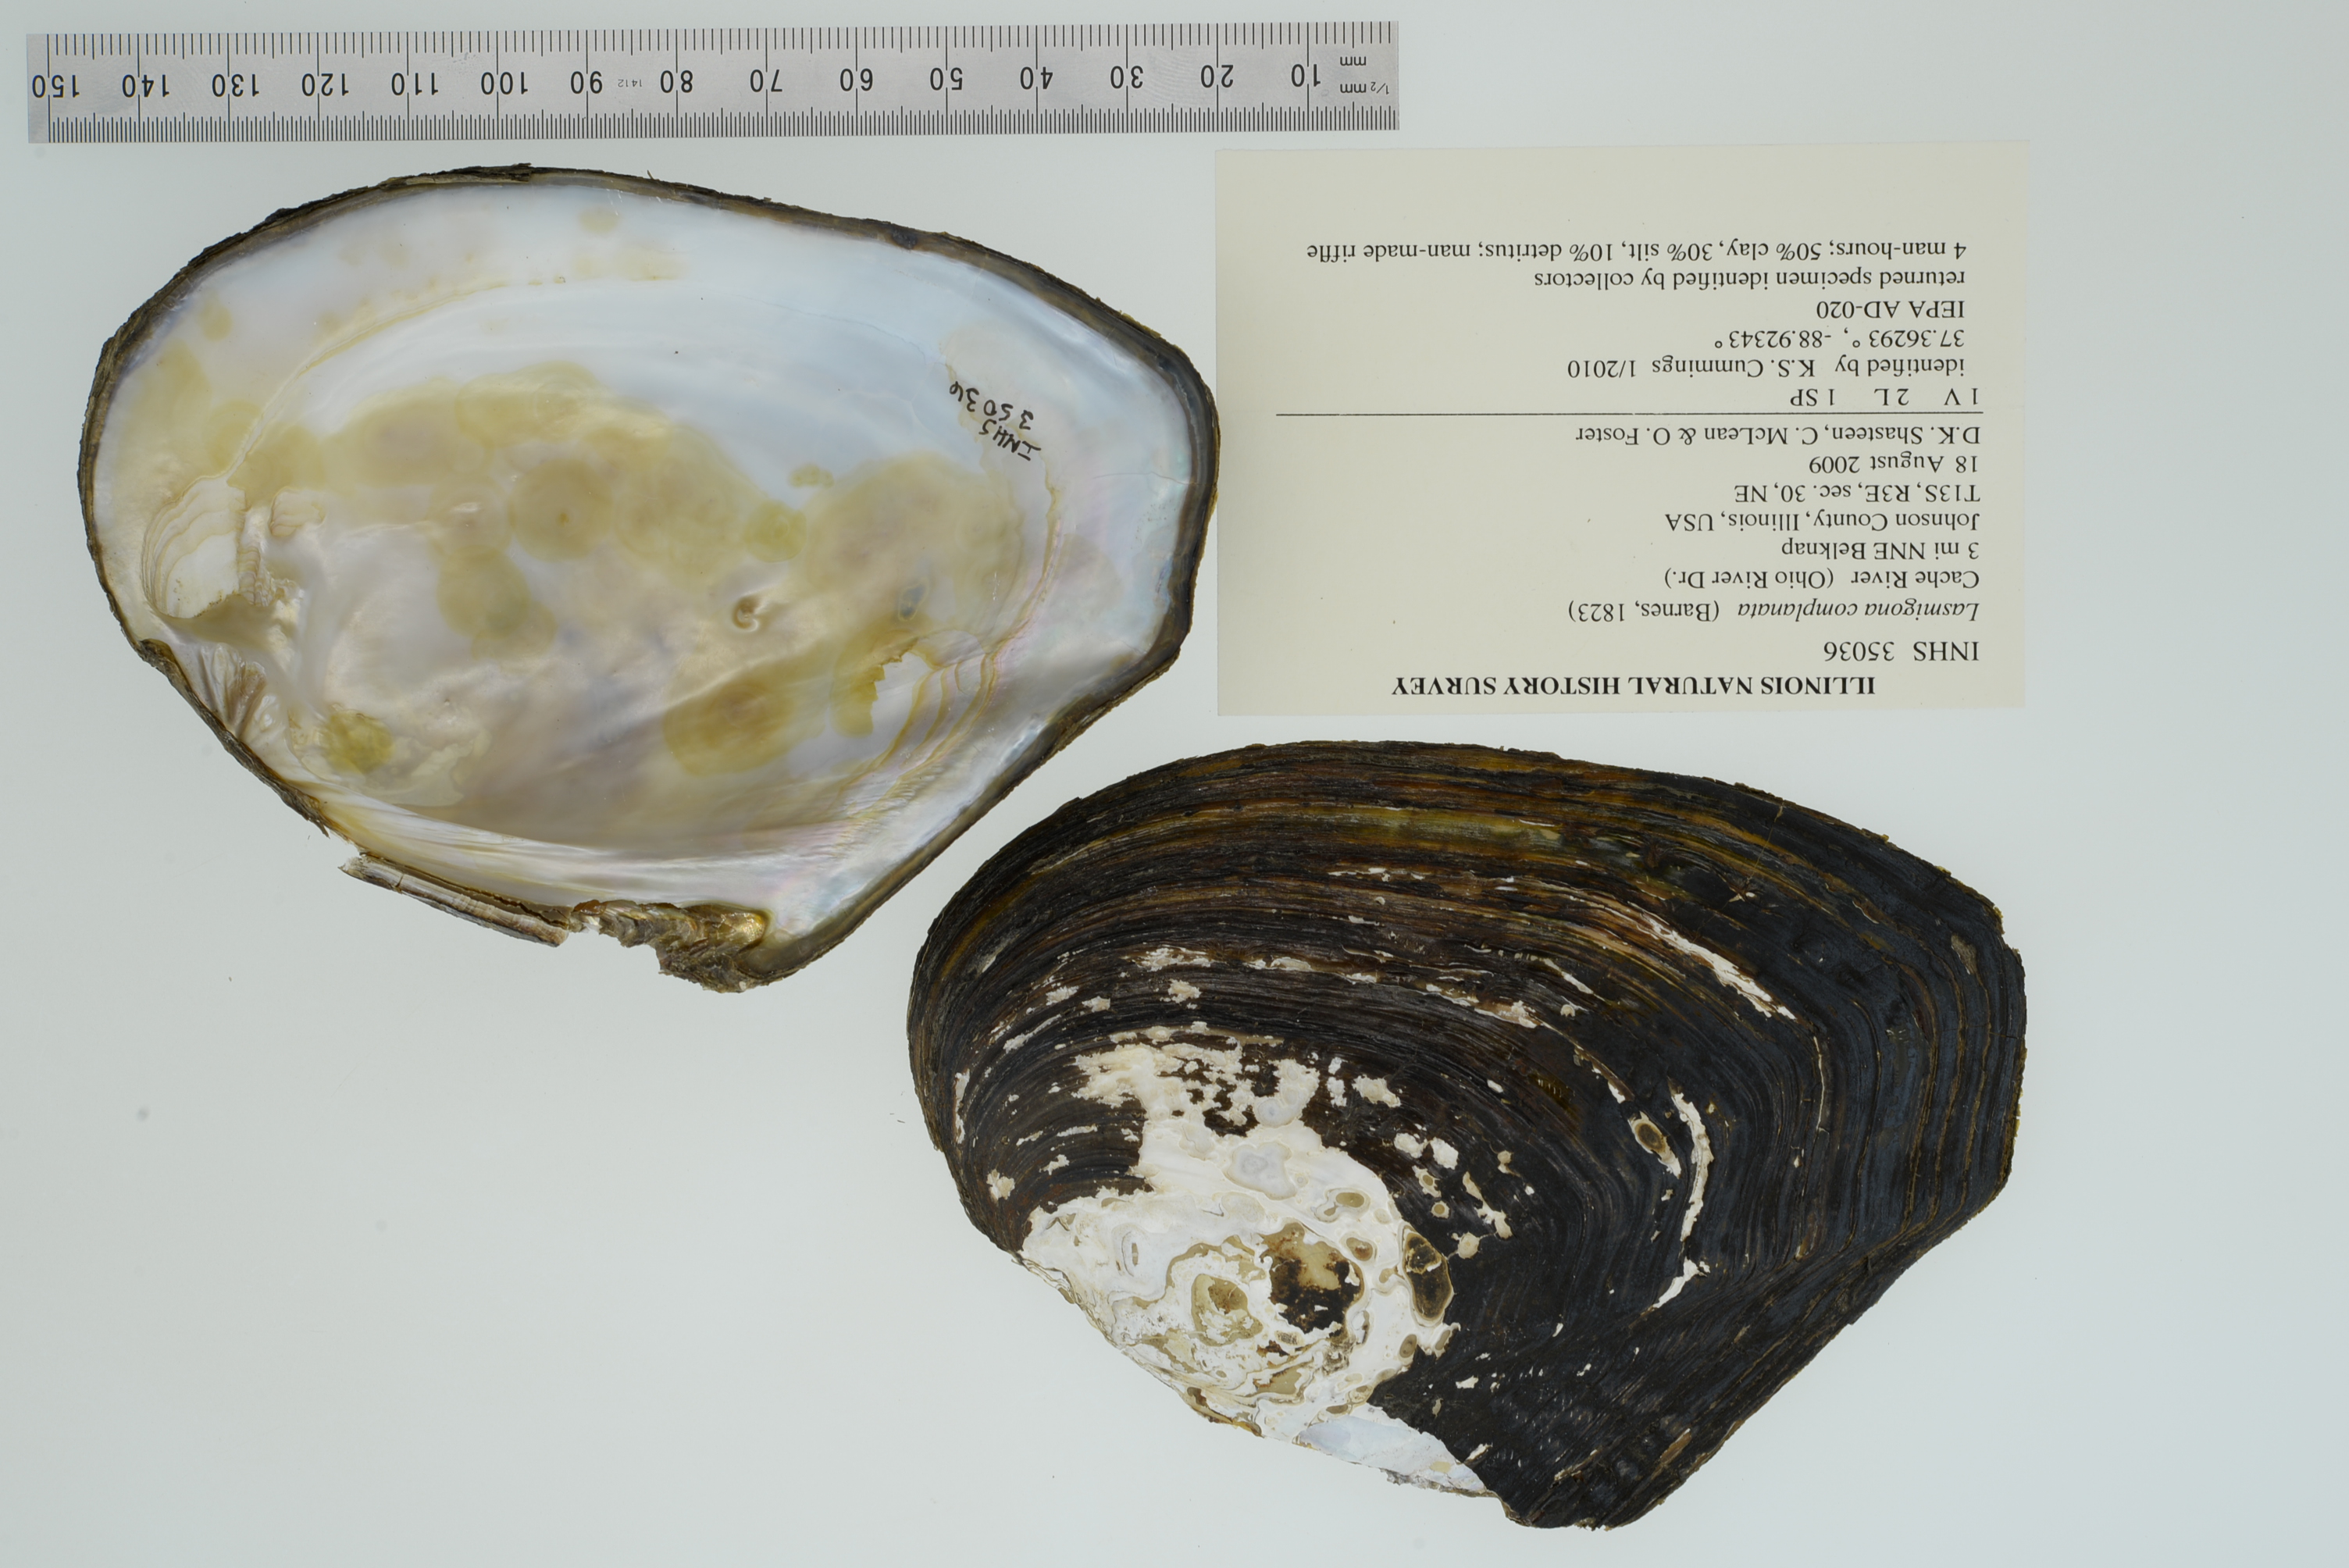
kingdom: Animalia
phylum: Mollusca
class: Bivalvia
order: Unionida
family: Unionidae
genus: Lasmigona
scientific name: Lasmigona complanata
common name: White heelsplitter
